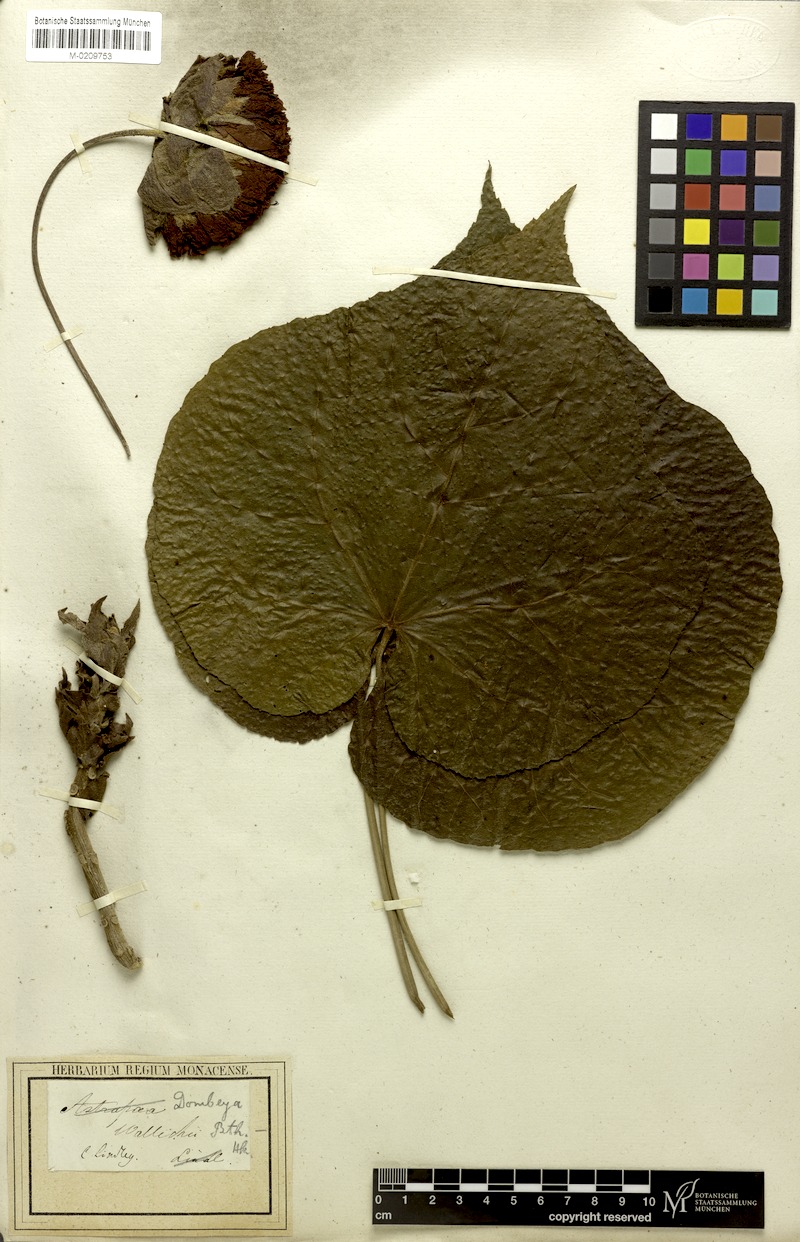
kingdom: Plantae
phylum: Tracheophyta
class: Magnoliopsida
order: Malvales
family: Malvaceae
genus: Dombeya
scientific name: Dombeya wallichii
